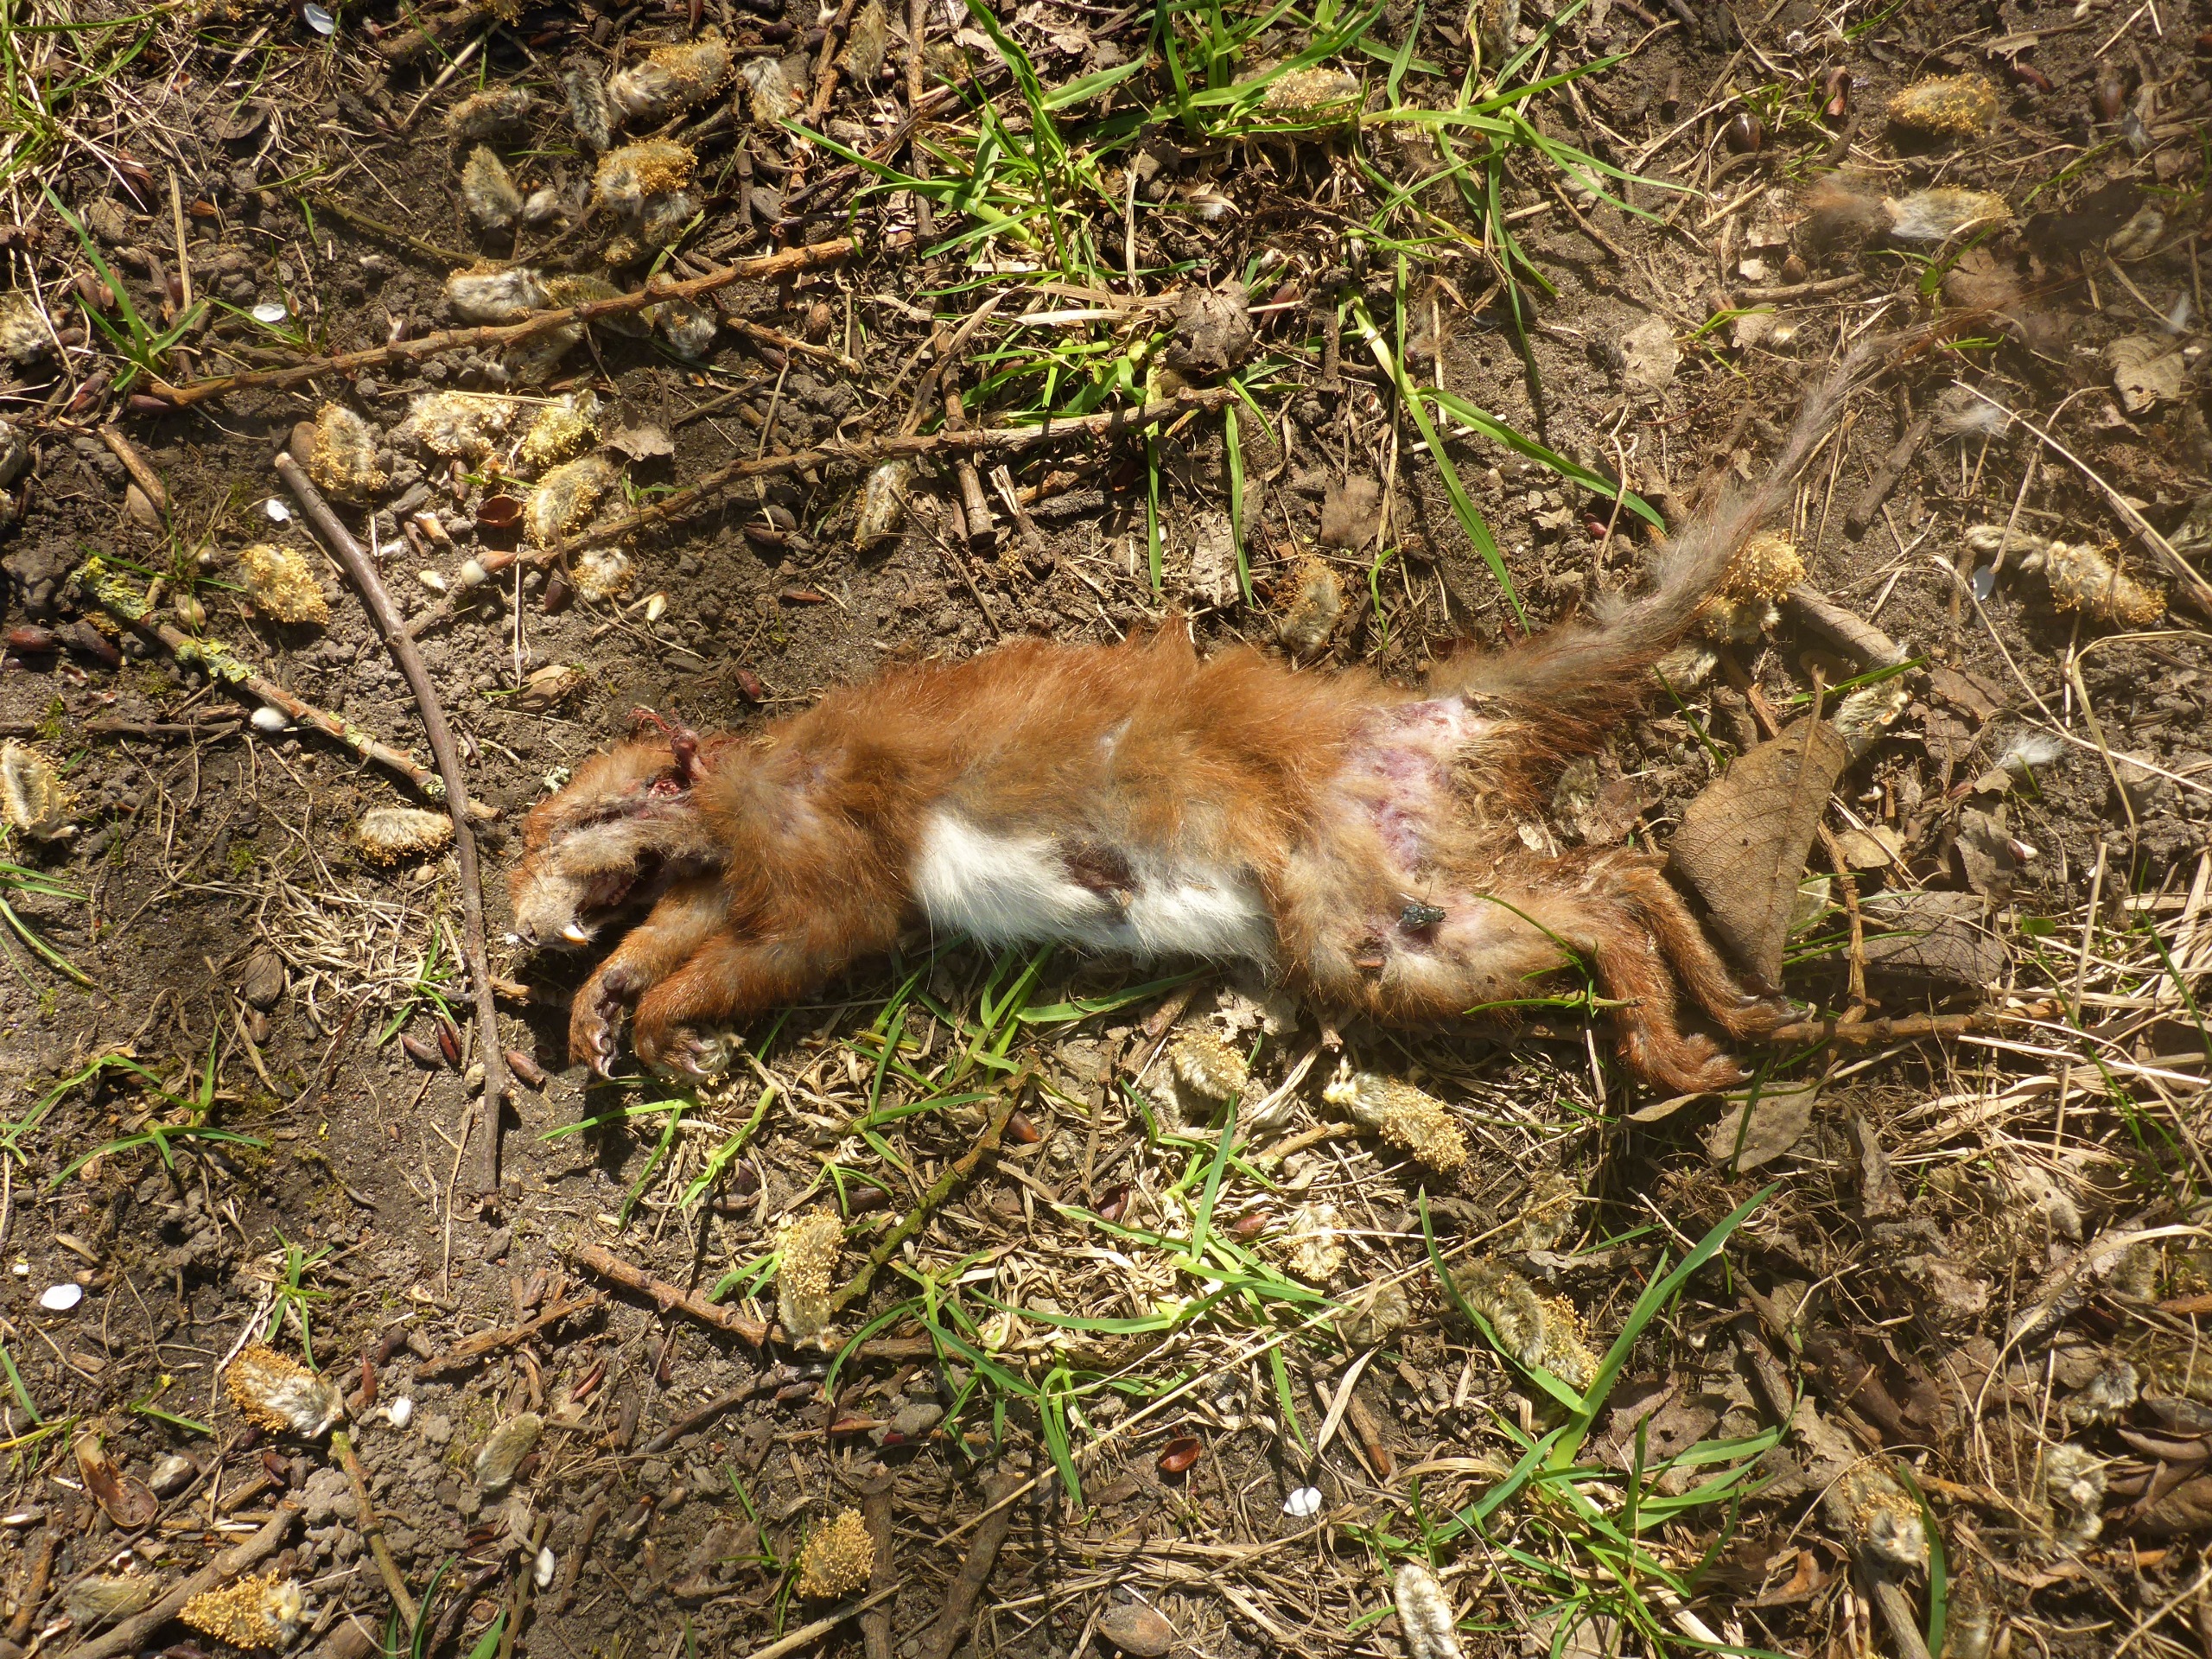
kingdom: Animalia
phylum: Chordata
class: Mammalia
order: Rodentia
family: Sciuridae
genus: Sciurus
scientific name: Sciurus vulgaris
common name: Egern
